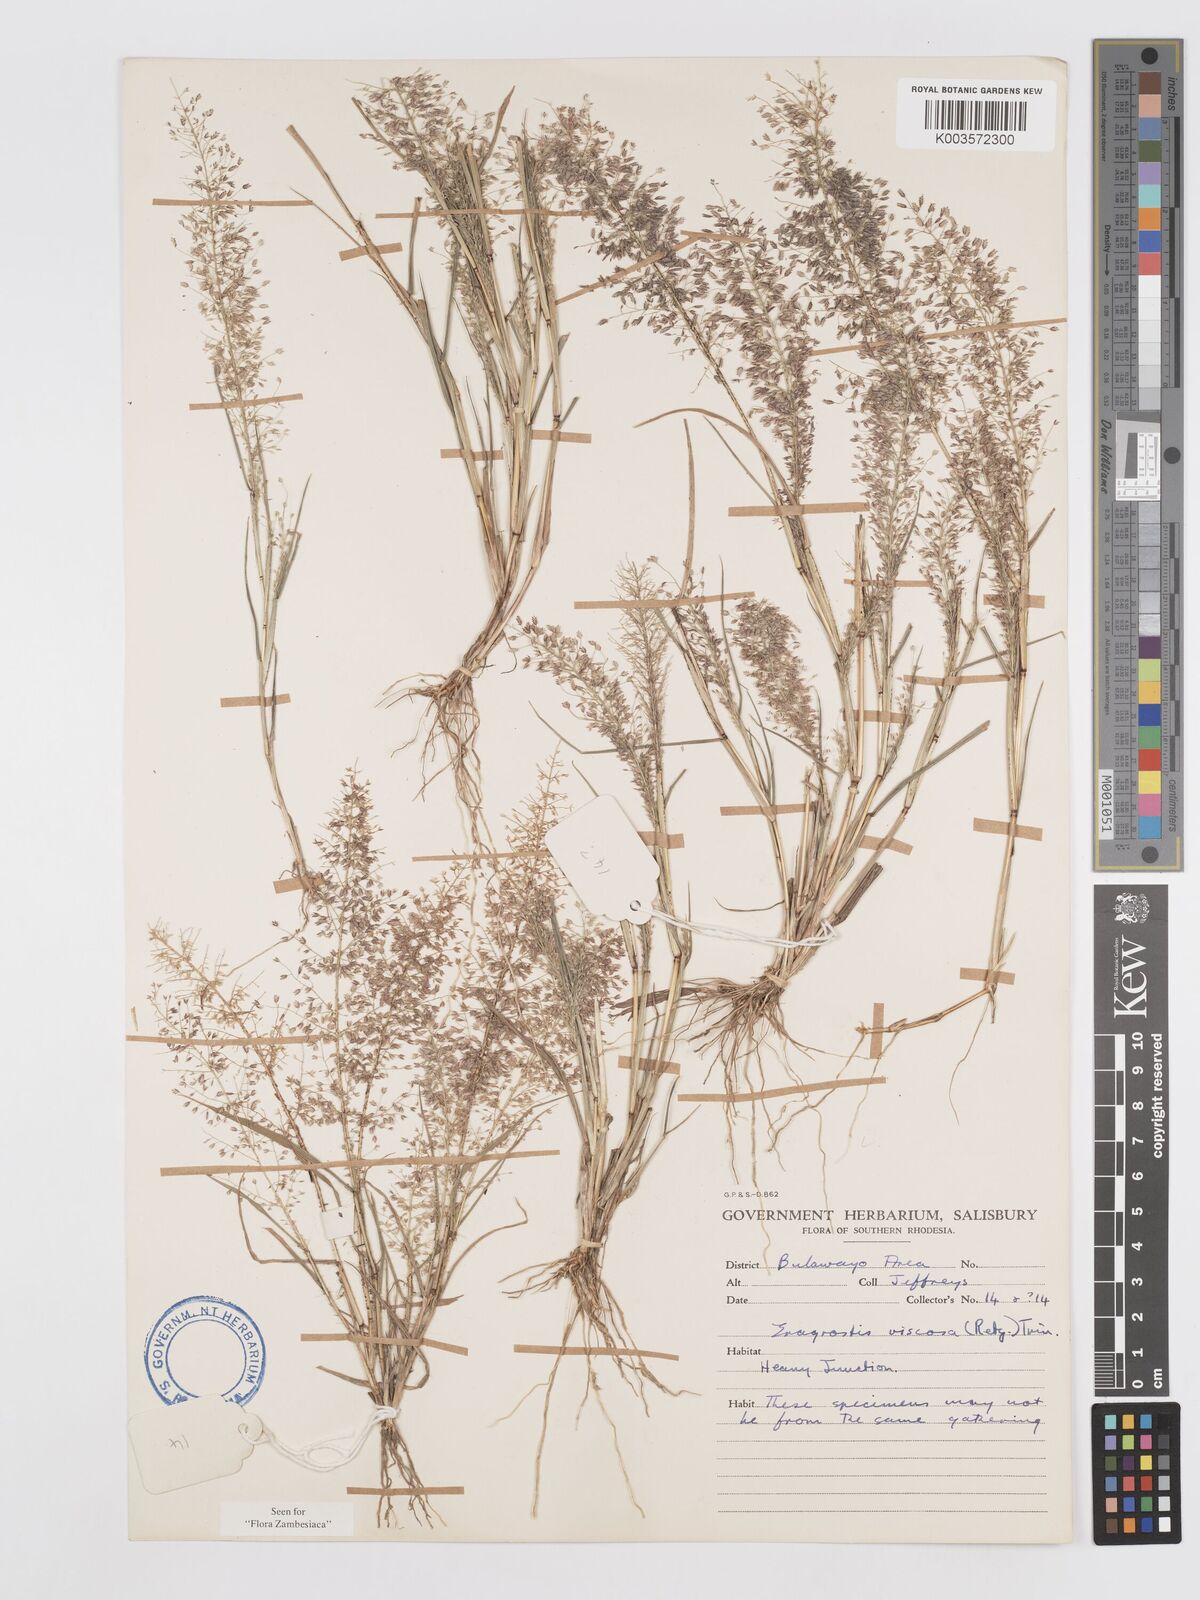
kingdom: Plantae
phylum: Tracheophyta
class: Liliopsida
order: Poales
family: Poaceae
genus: Eragrostis
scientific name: Eragrostis
